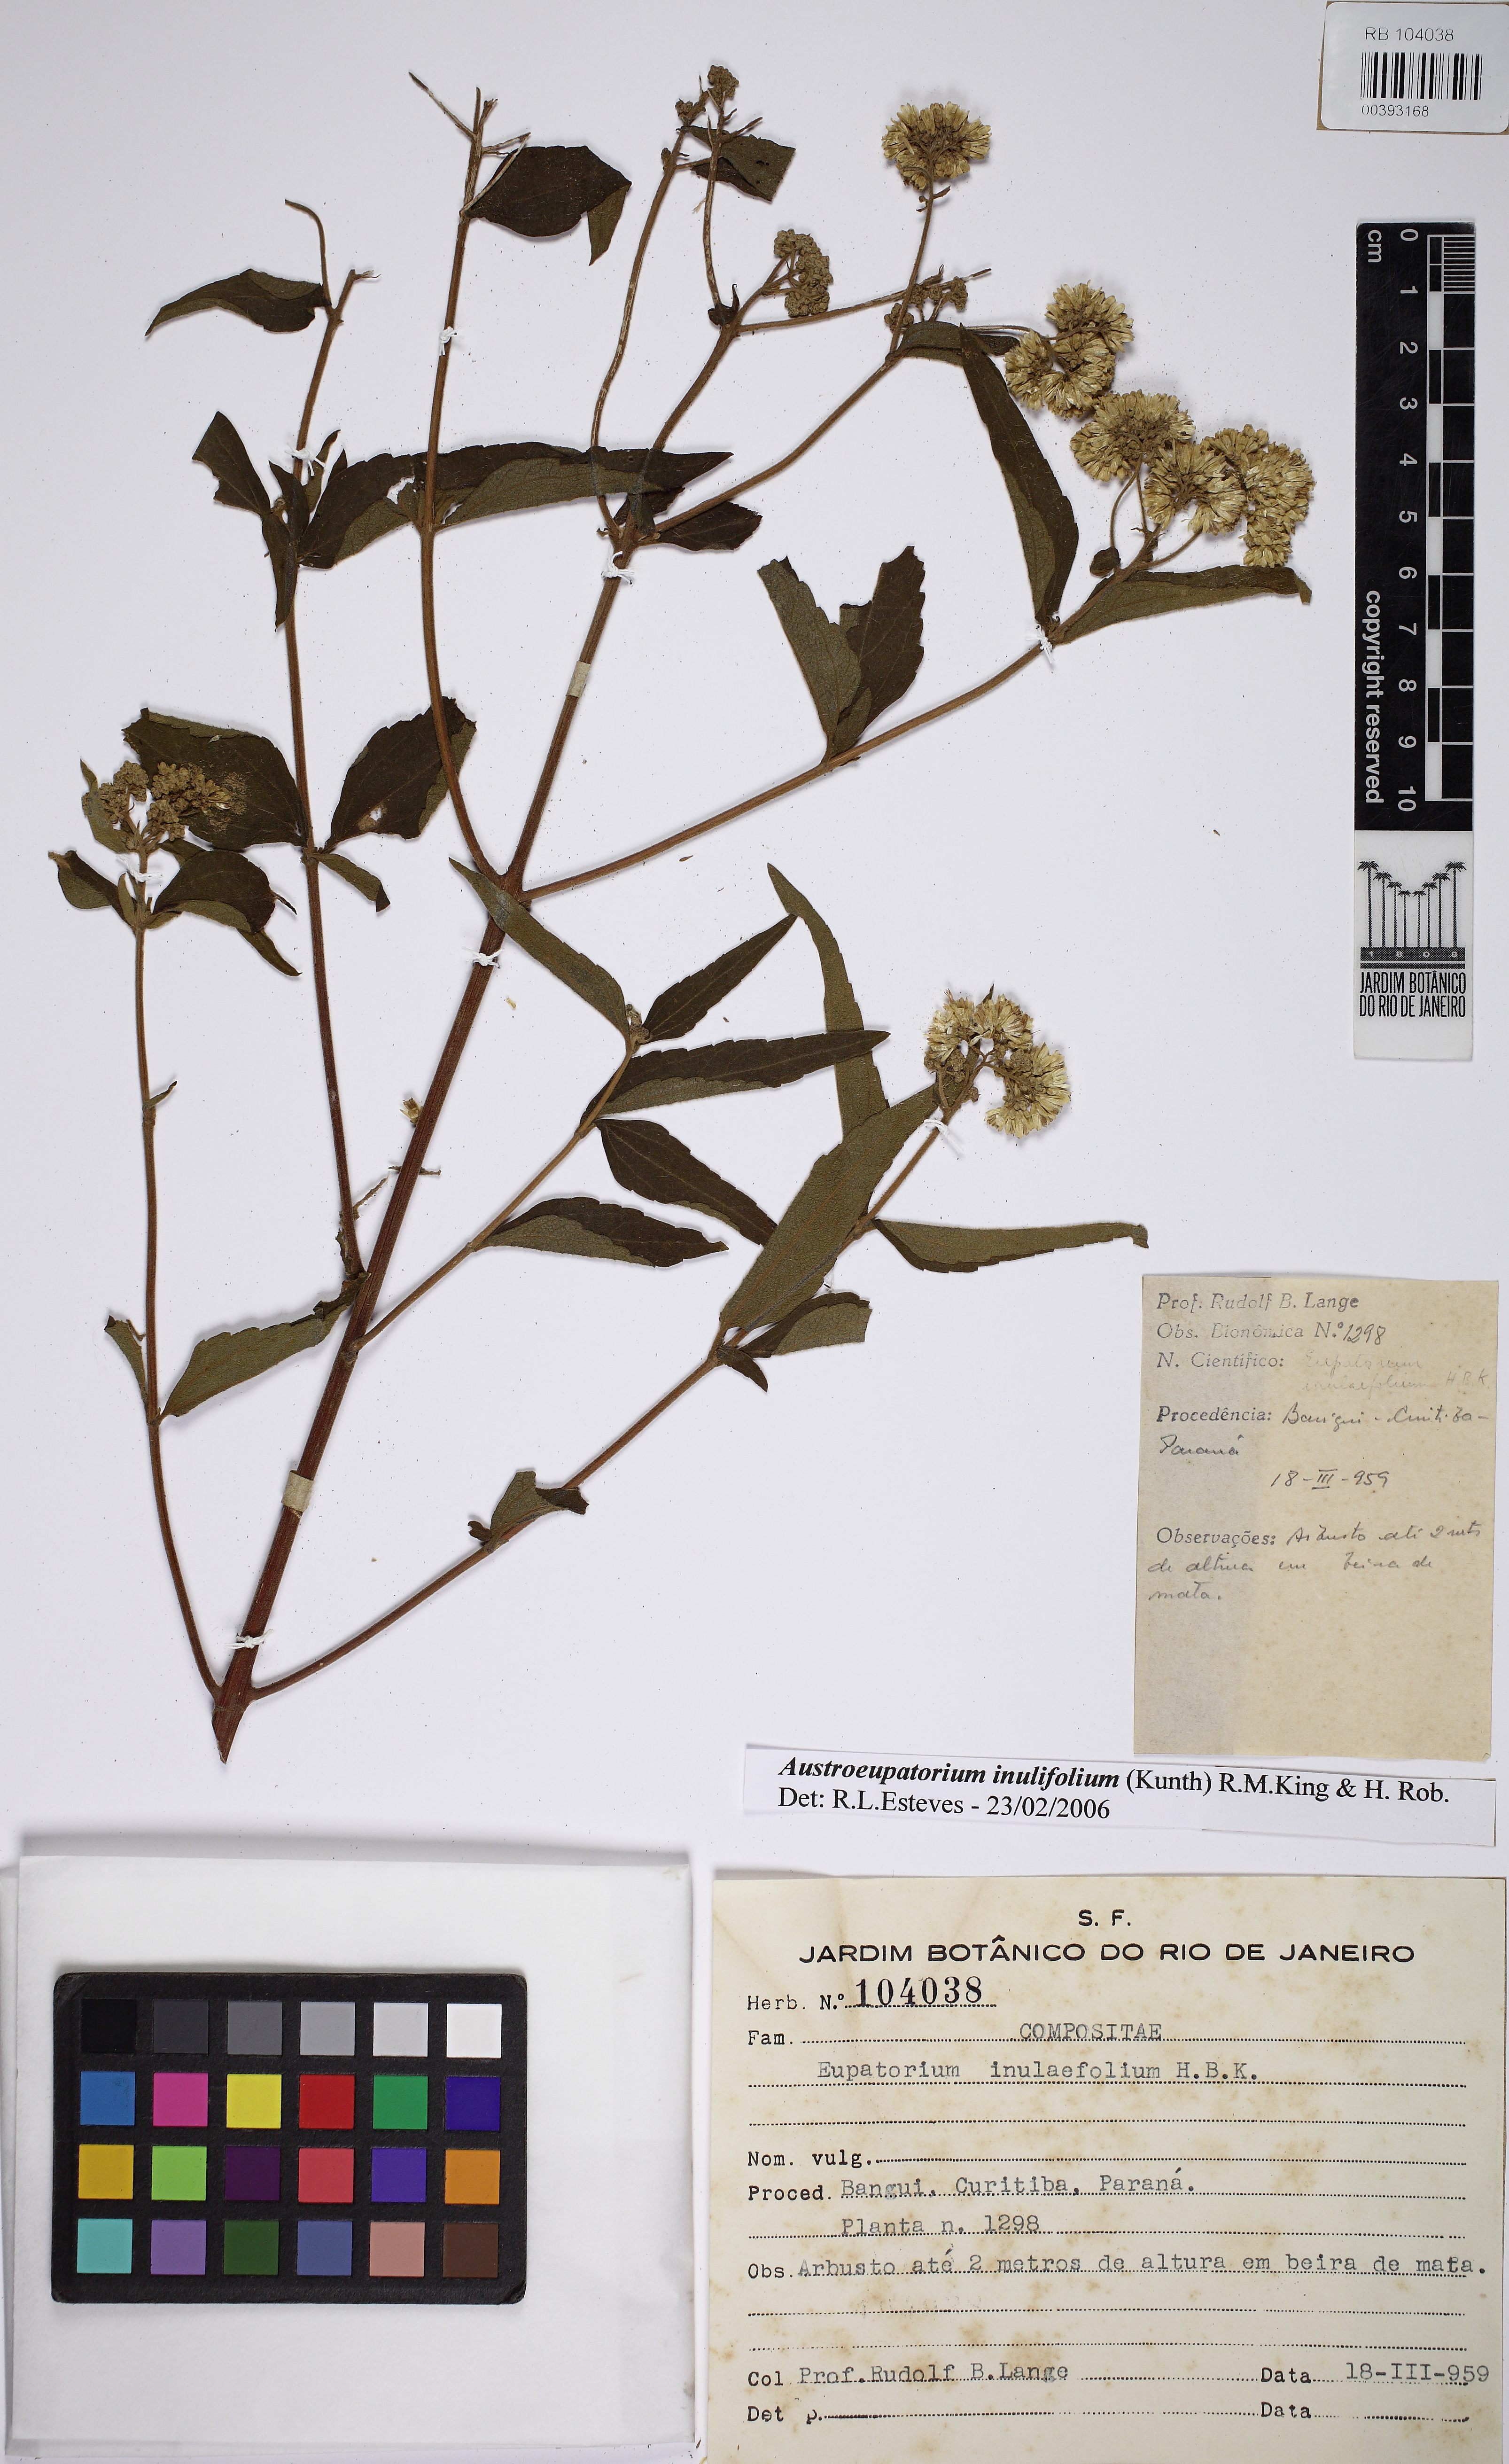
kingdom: Plantae
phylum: Tracheophyta
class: Magnoliopsida
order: Asterales
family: Asteraceae
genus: Austroeupatorium
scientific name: Austroeupatorium inulaefolium
